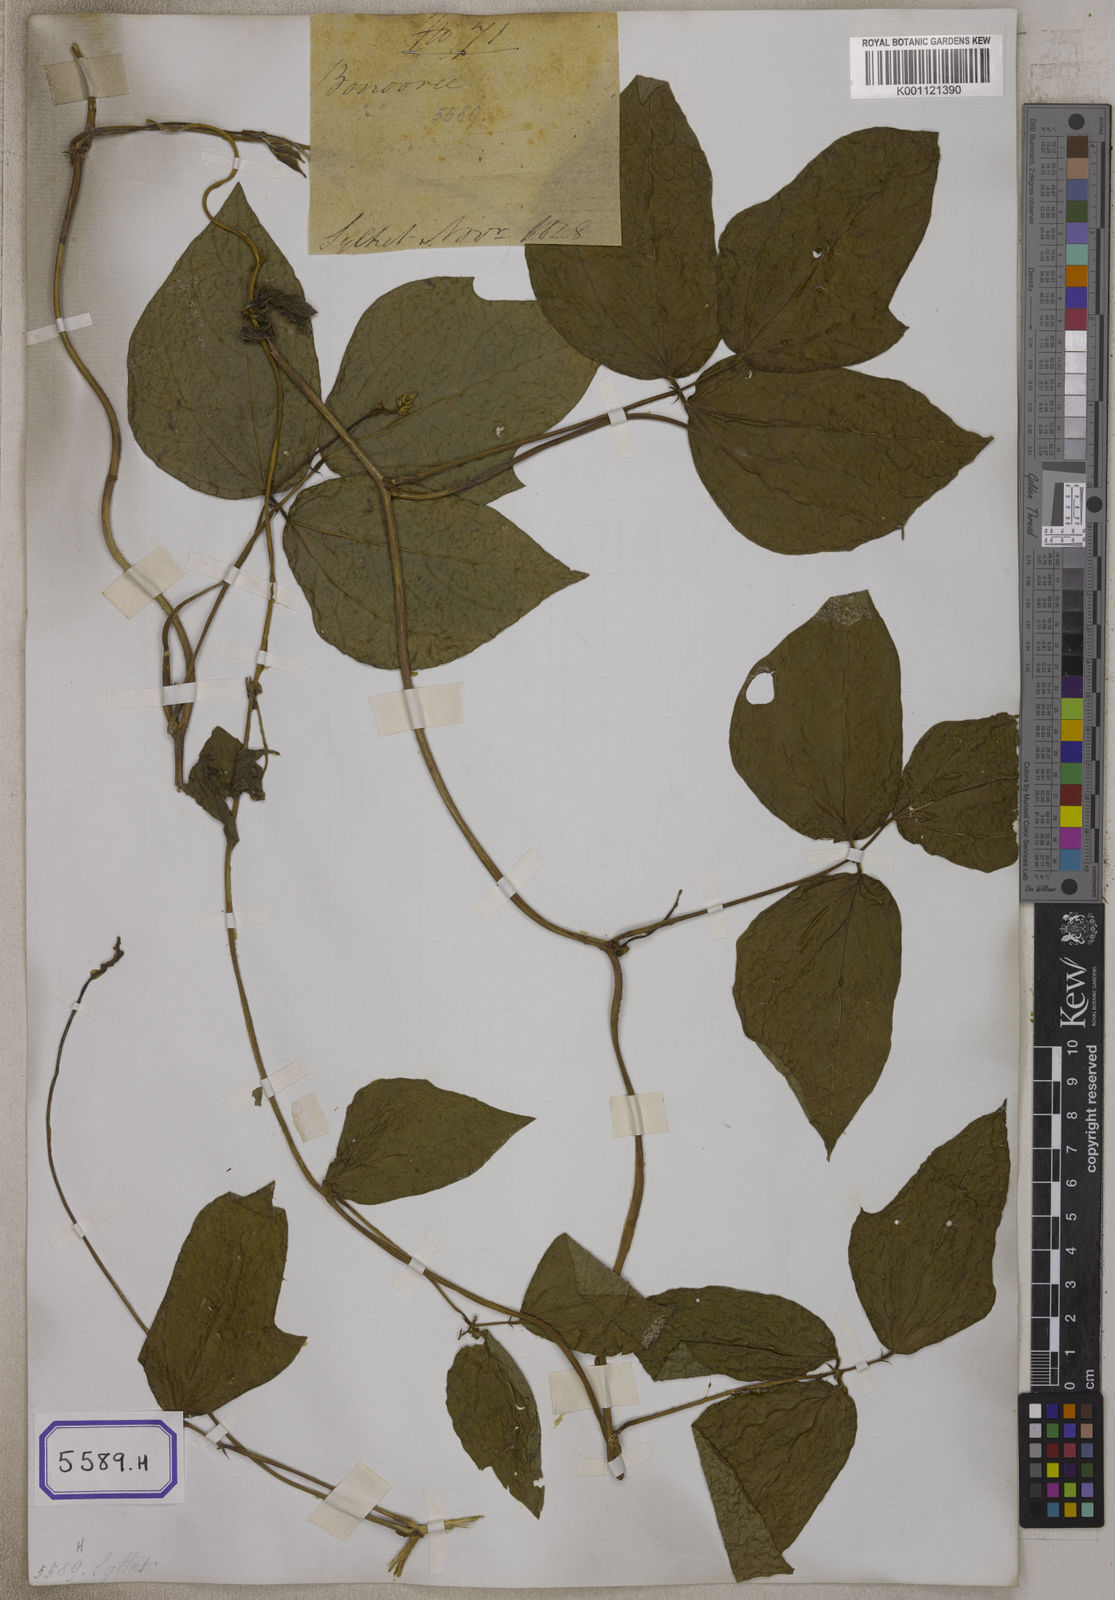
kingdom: Plantae
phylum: Tracheophyta
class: Magnoliopsida
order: Fabales
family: Fabaceae
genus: Phaseolus
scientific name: Phaseolus
